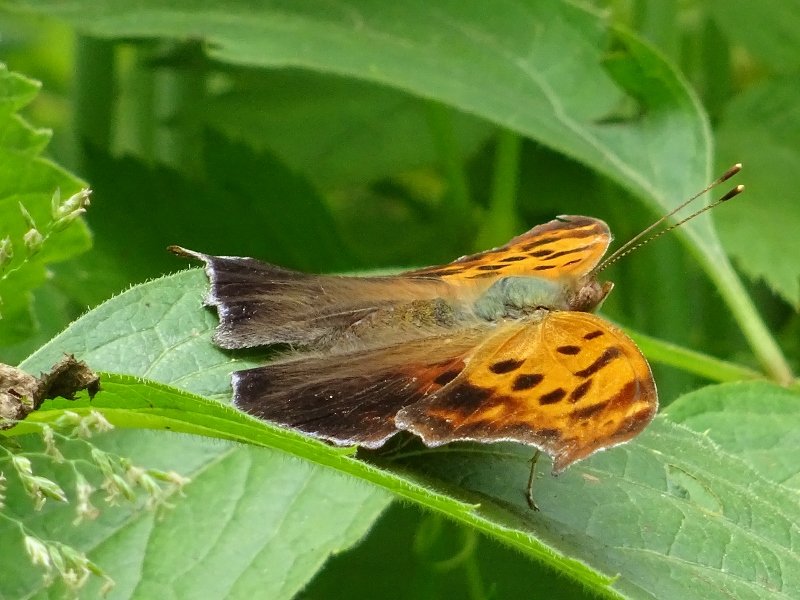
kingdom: Animalia
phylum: Arthropoda
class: Insecta
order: Lepidoptera
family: Nymphalidae
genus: Polygonia
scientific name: Polygonia interrogationis
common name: Question Mark
